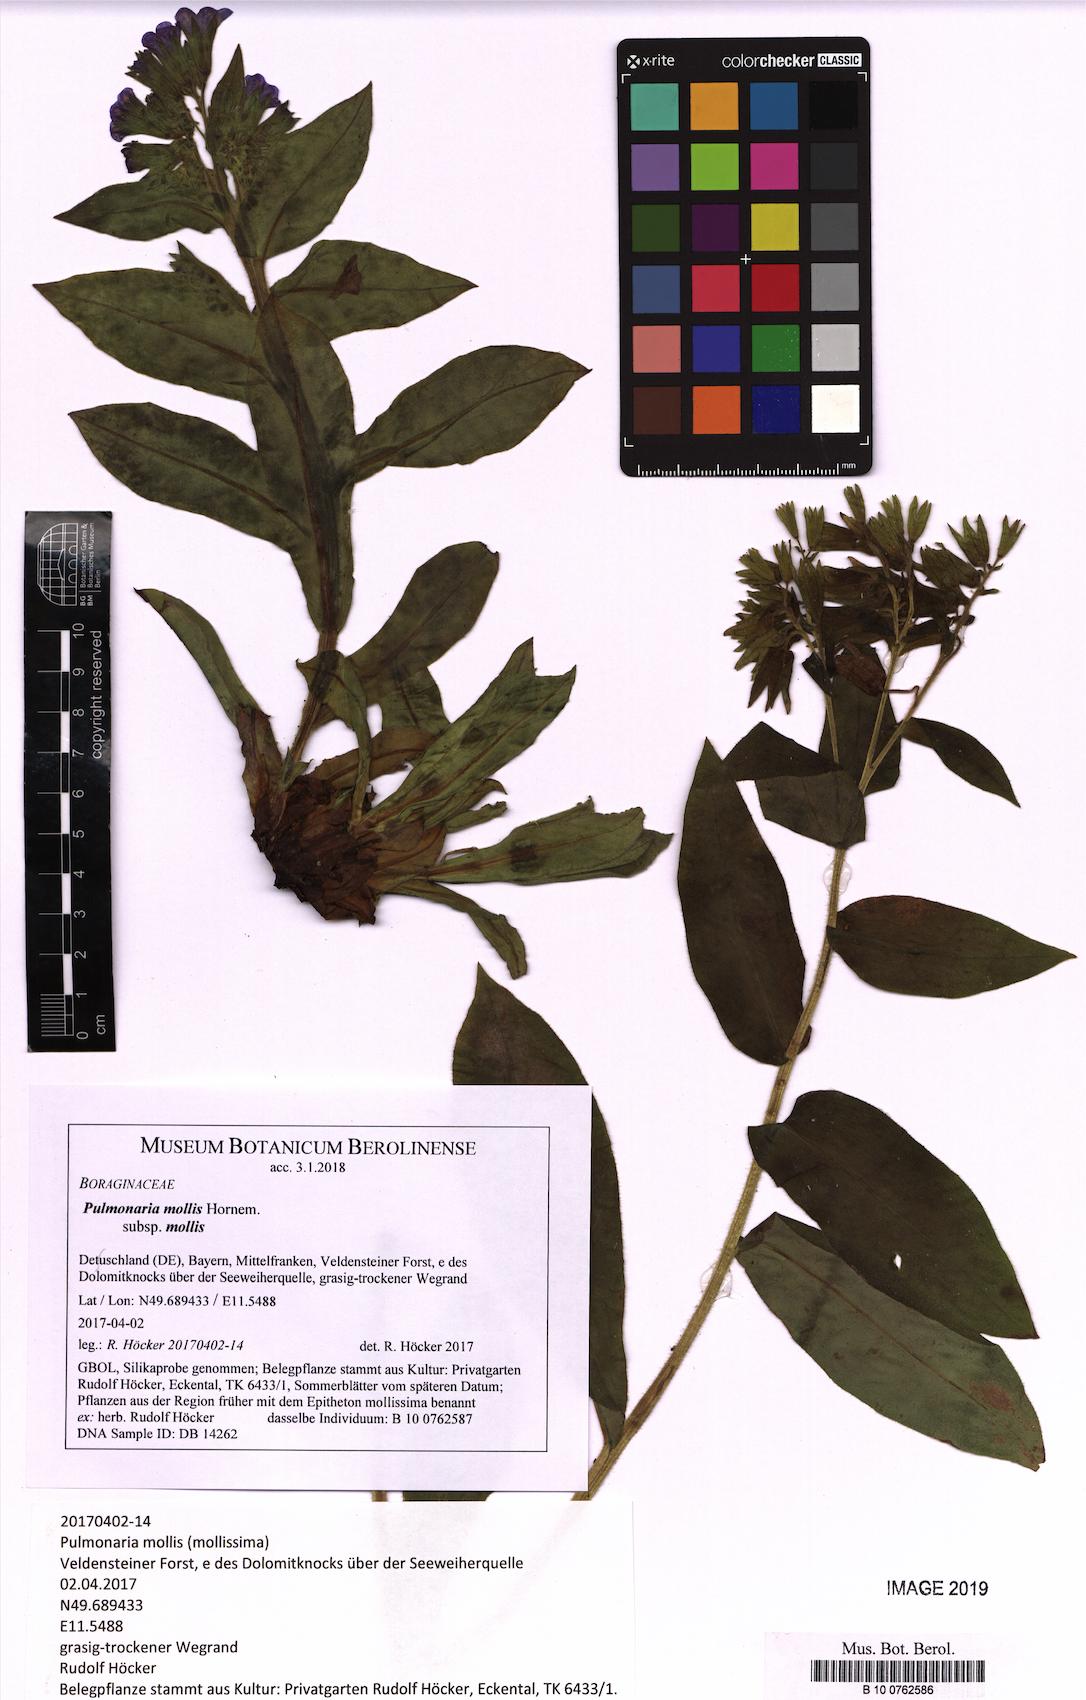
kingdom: Plantae
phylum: Tracheophyta
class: Magnoliopsida
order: Boraginales
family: Boraginaceae
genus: Pulmonaria
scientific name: Pulmonaria mollis
